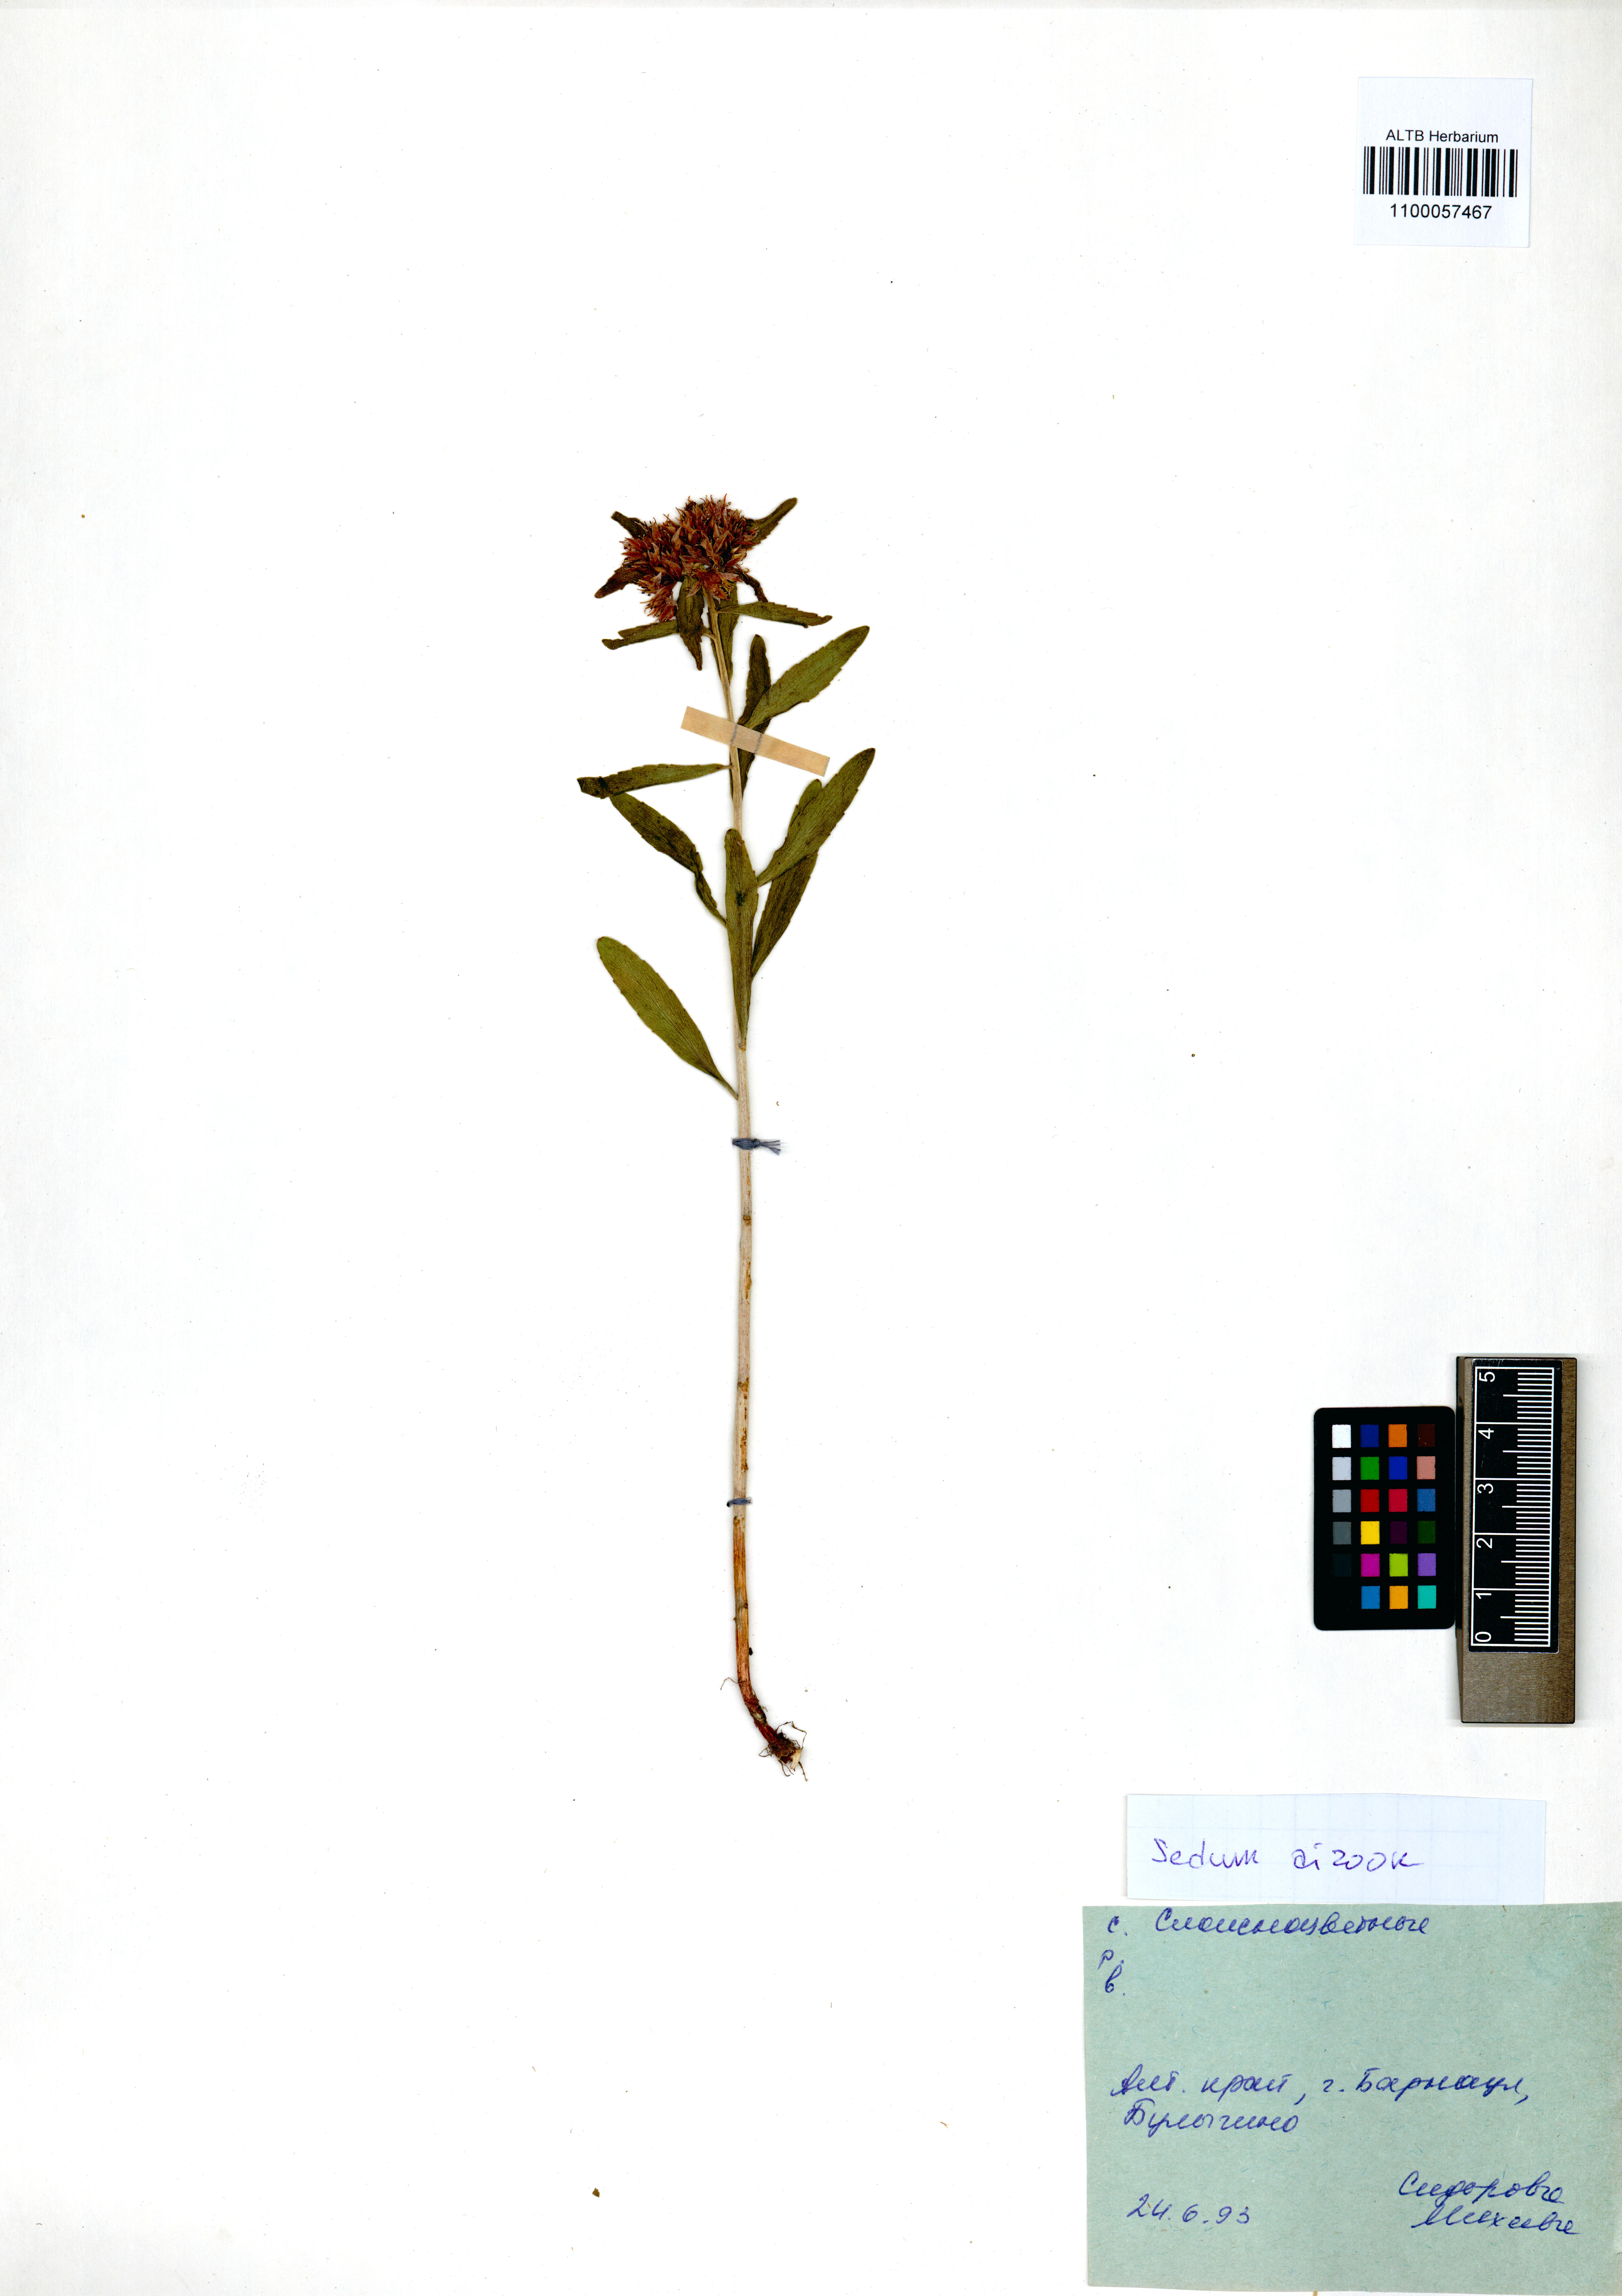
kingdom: Plantae
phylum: Tracheophyta
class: Magnoliopsida
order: Saxifragales
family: Crassulaceae
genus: Phedimus
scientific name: Phedimus aizoon
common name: Orpin aizoon
